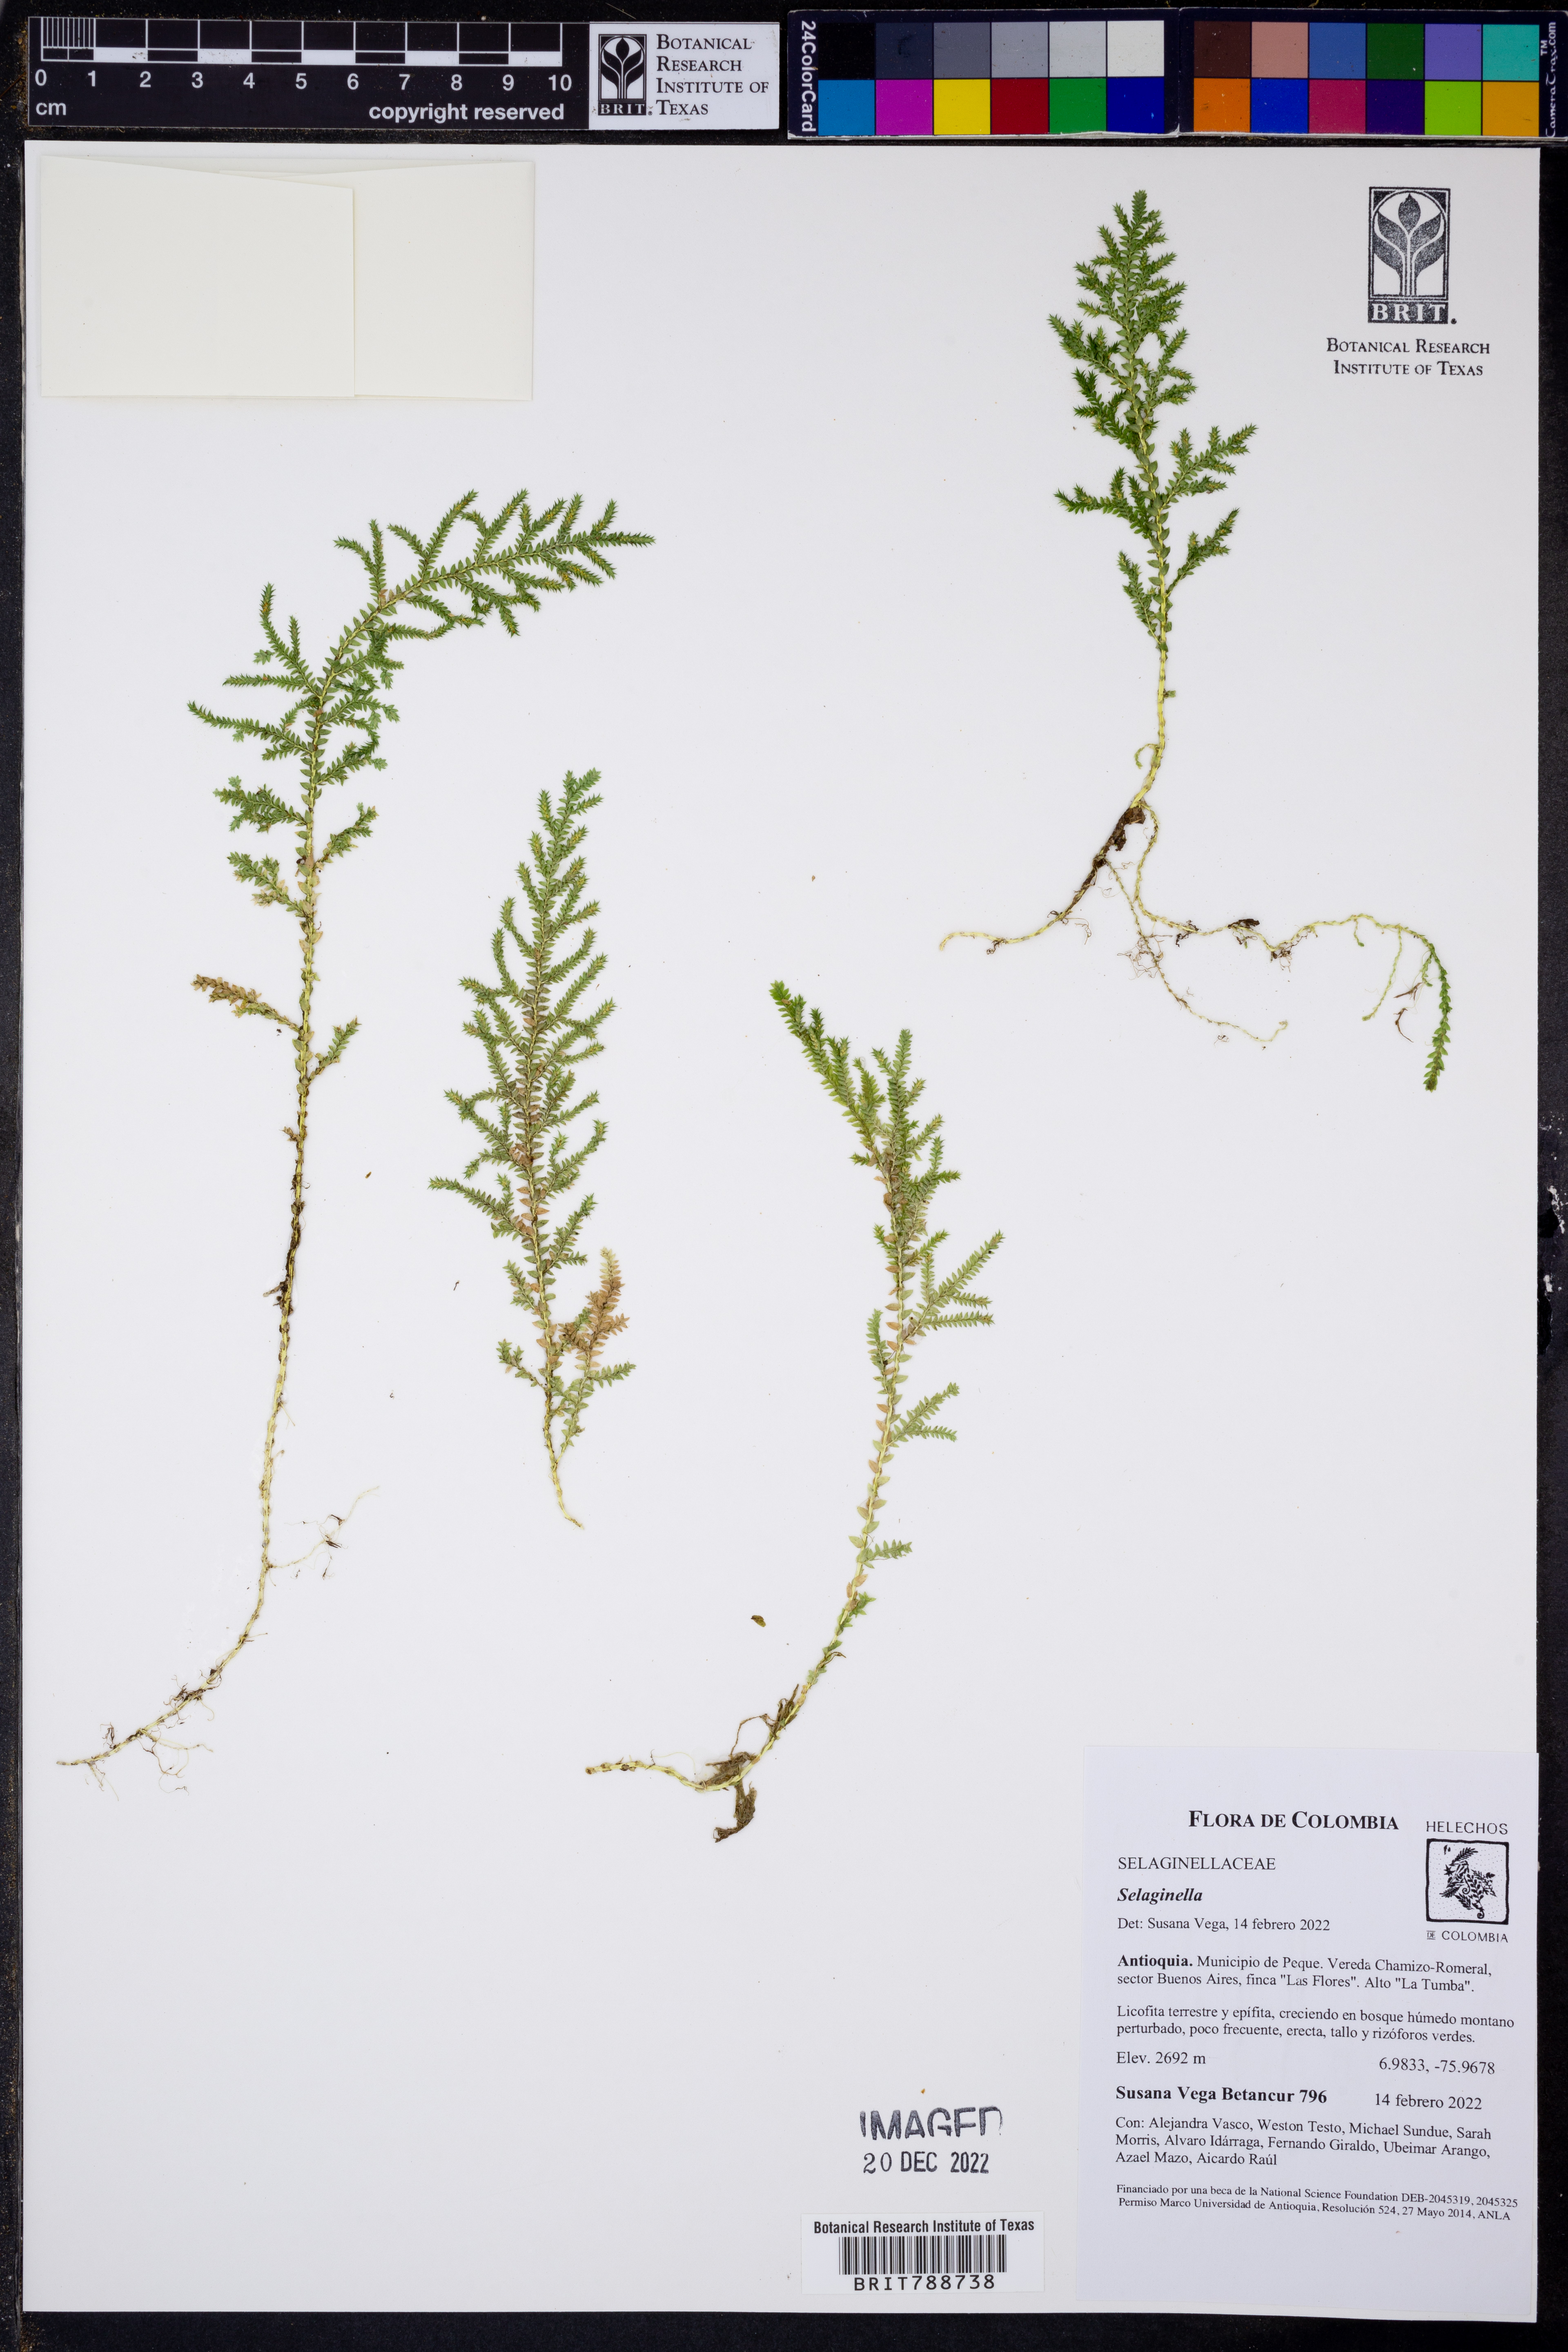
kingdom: Plantae
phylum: Tracheophyta
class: Lycopodiopsida
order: Selaginellales
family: Selaginellaceae
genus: Selaginella
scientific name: Selaginella
